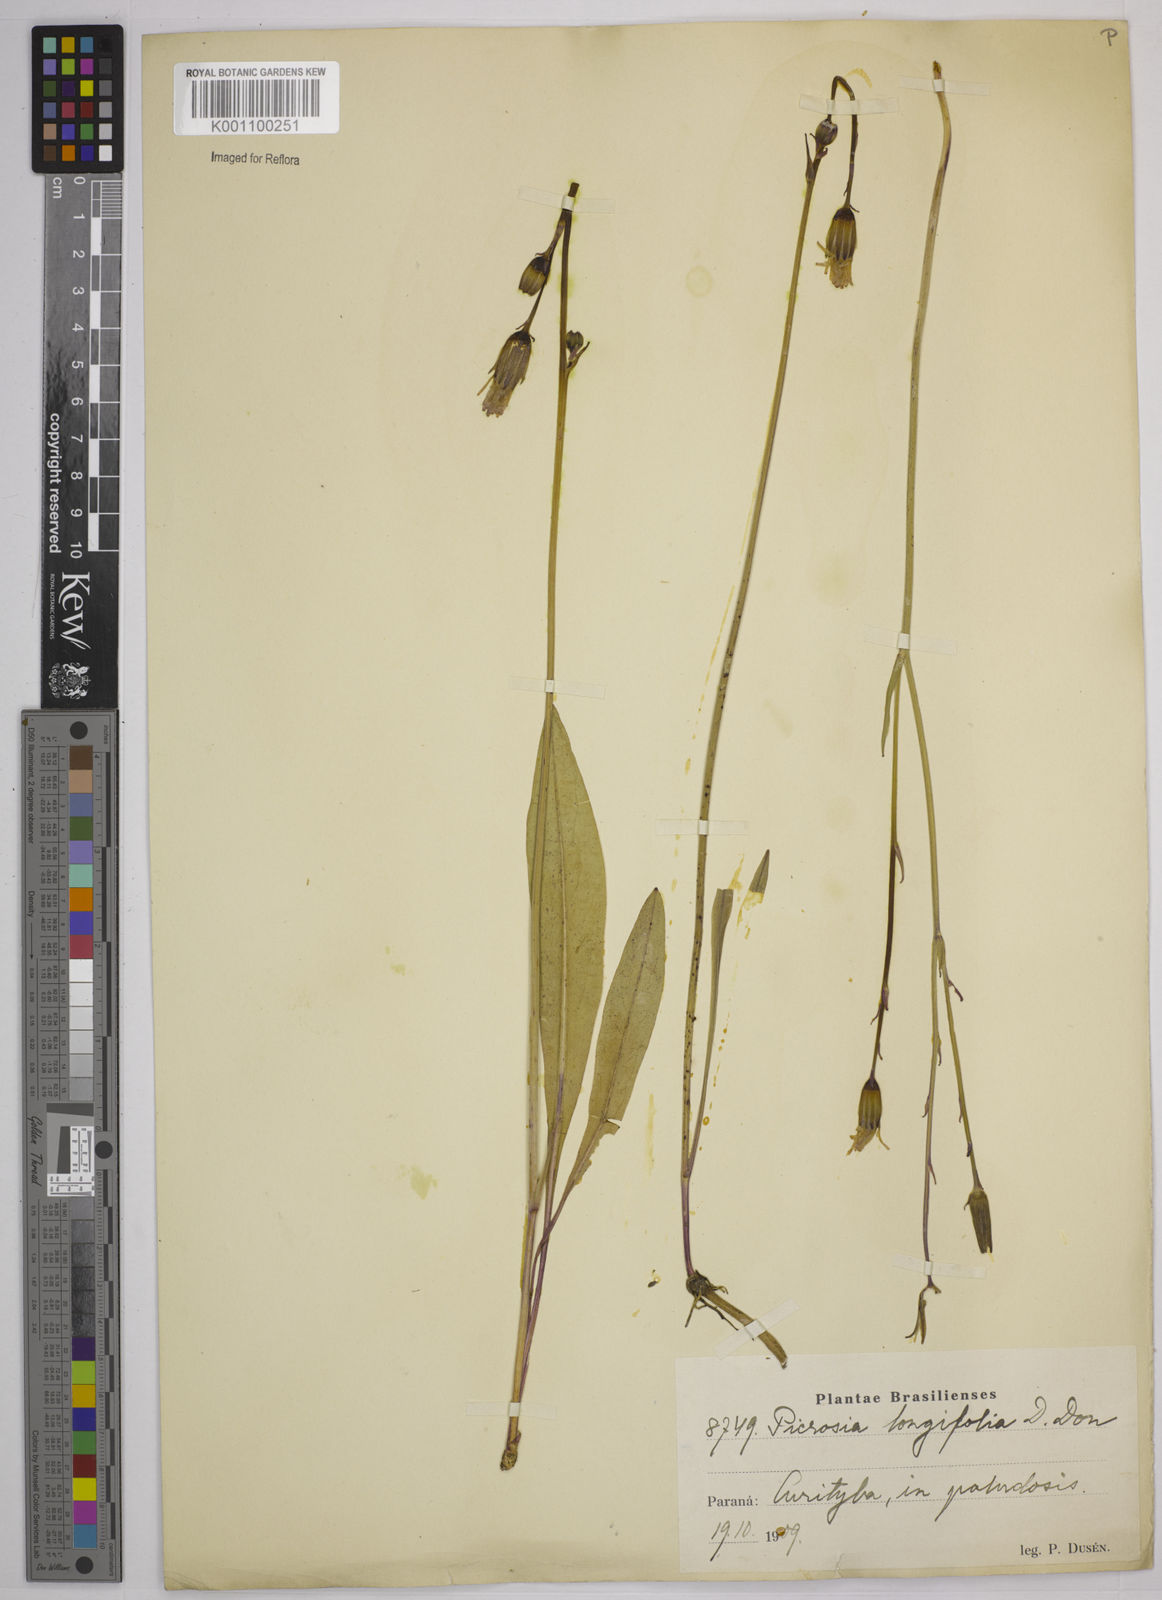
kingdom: Plantae
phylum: Tracheophyta
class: Magnoliopsida
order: Asterales
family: Asteraceae
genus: Picrosia
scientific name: Picrosia longifolia
